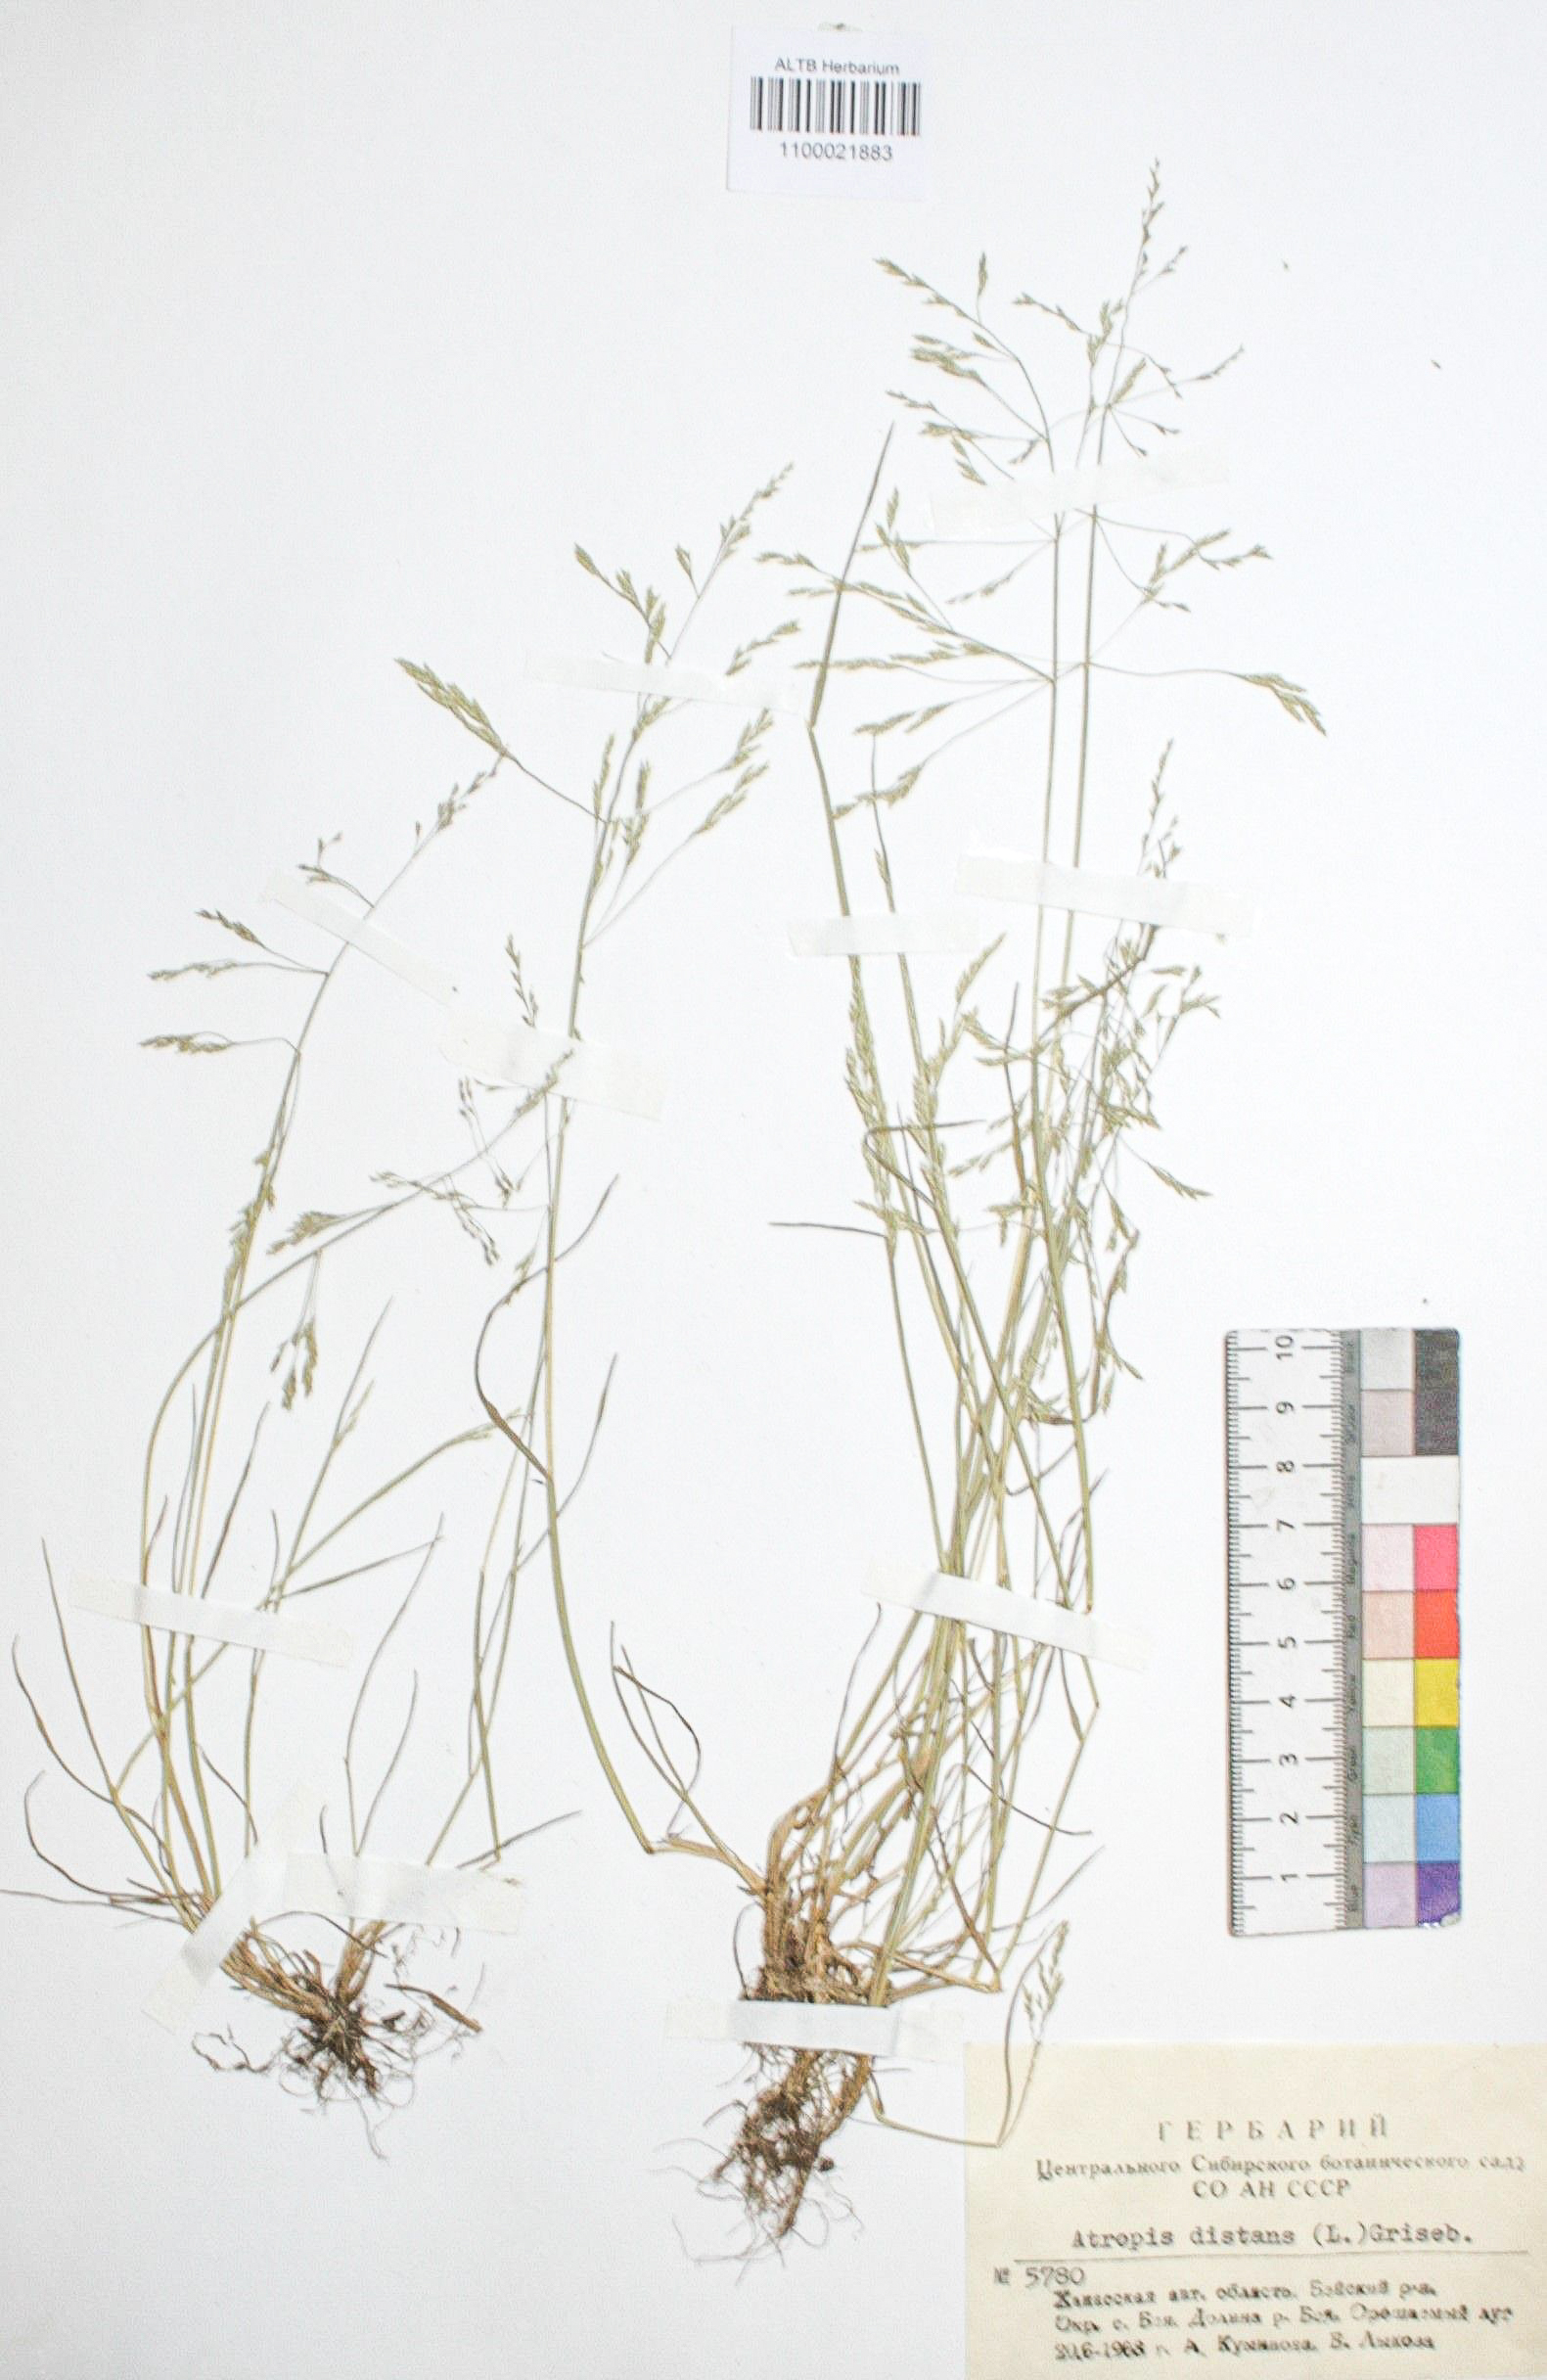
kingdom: Plantae
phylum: Tracheophyta
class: Liliopsida
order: Poales
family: Poaceae
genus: Puccinellia
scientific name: Puccinellia distans
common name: Weeping alkaligrass
